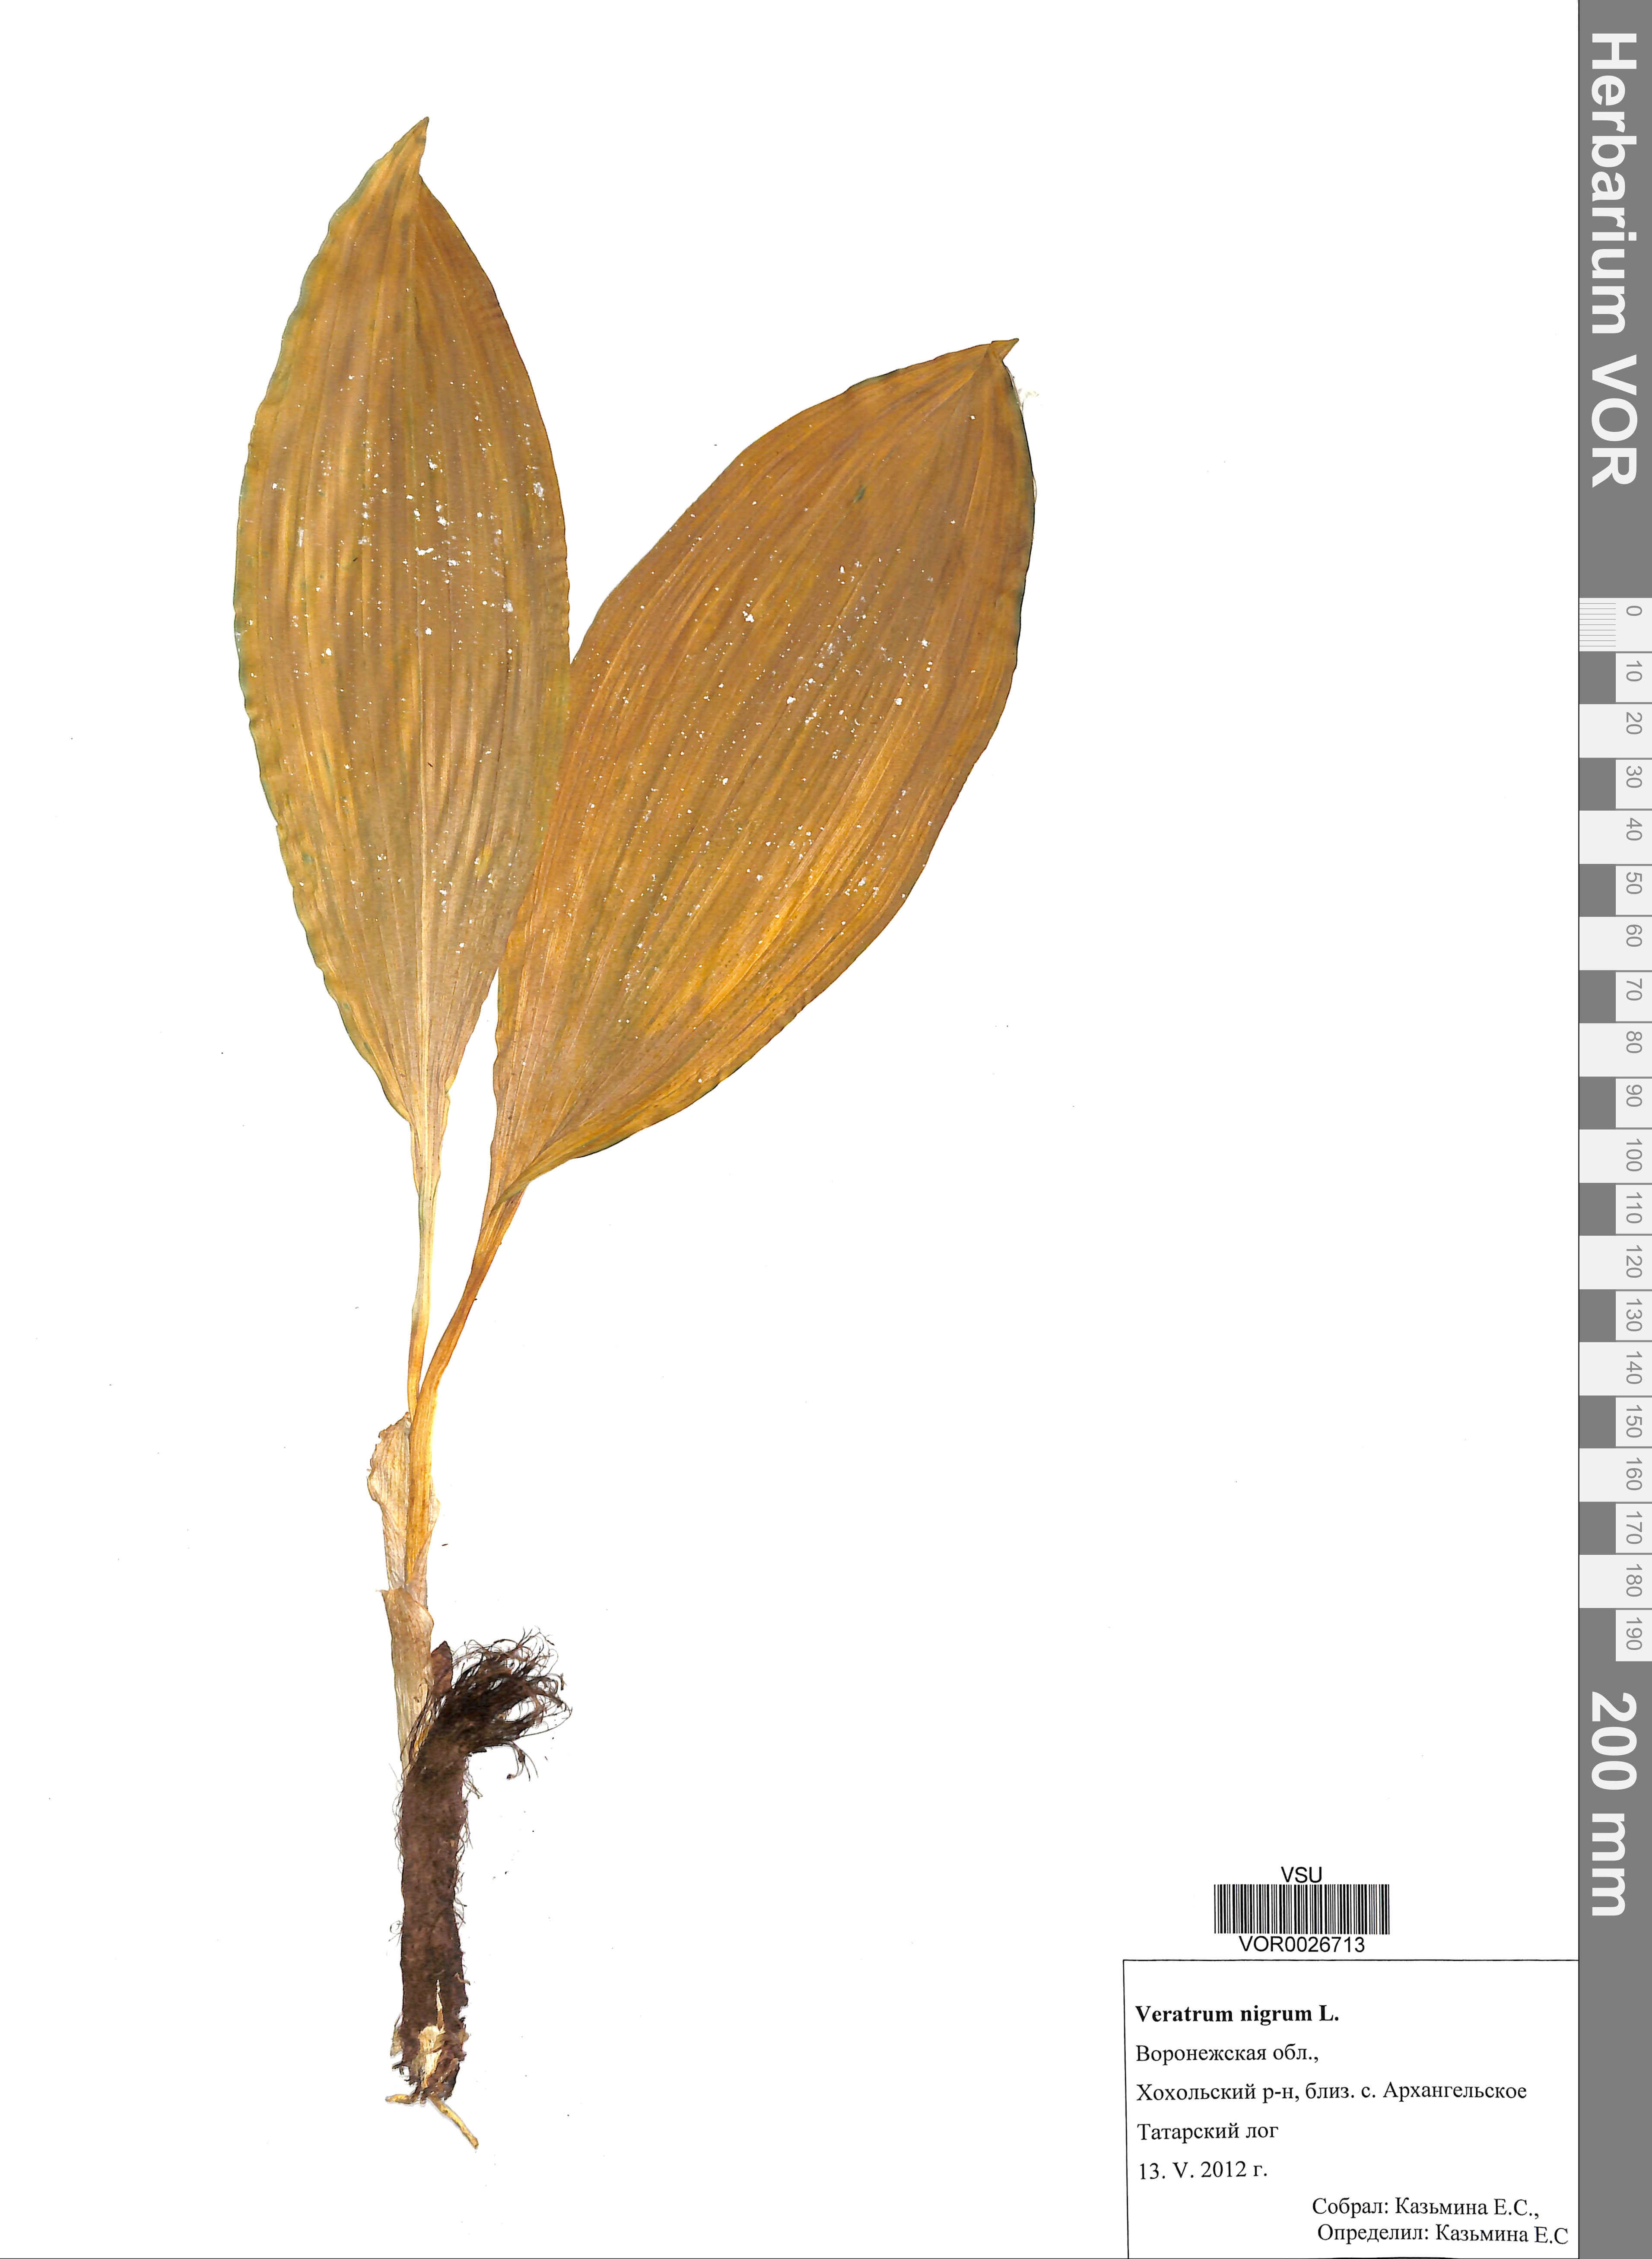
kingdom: Plantae
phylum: Tracheophyta
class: Liliopsida
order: Liliales
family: Melanthiaceae
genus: Veratrum
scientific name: Veratrum nigrum
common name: Black veratrum
